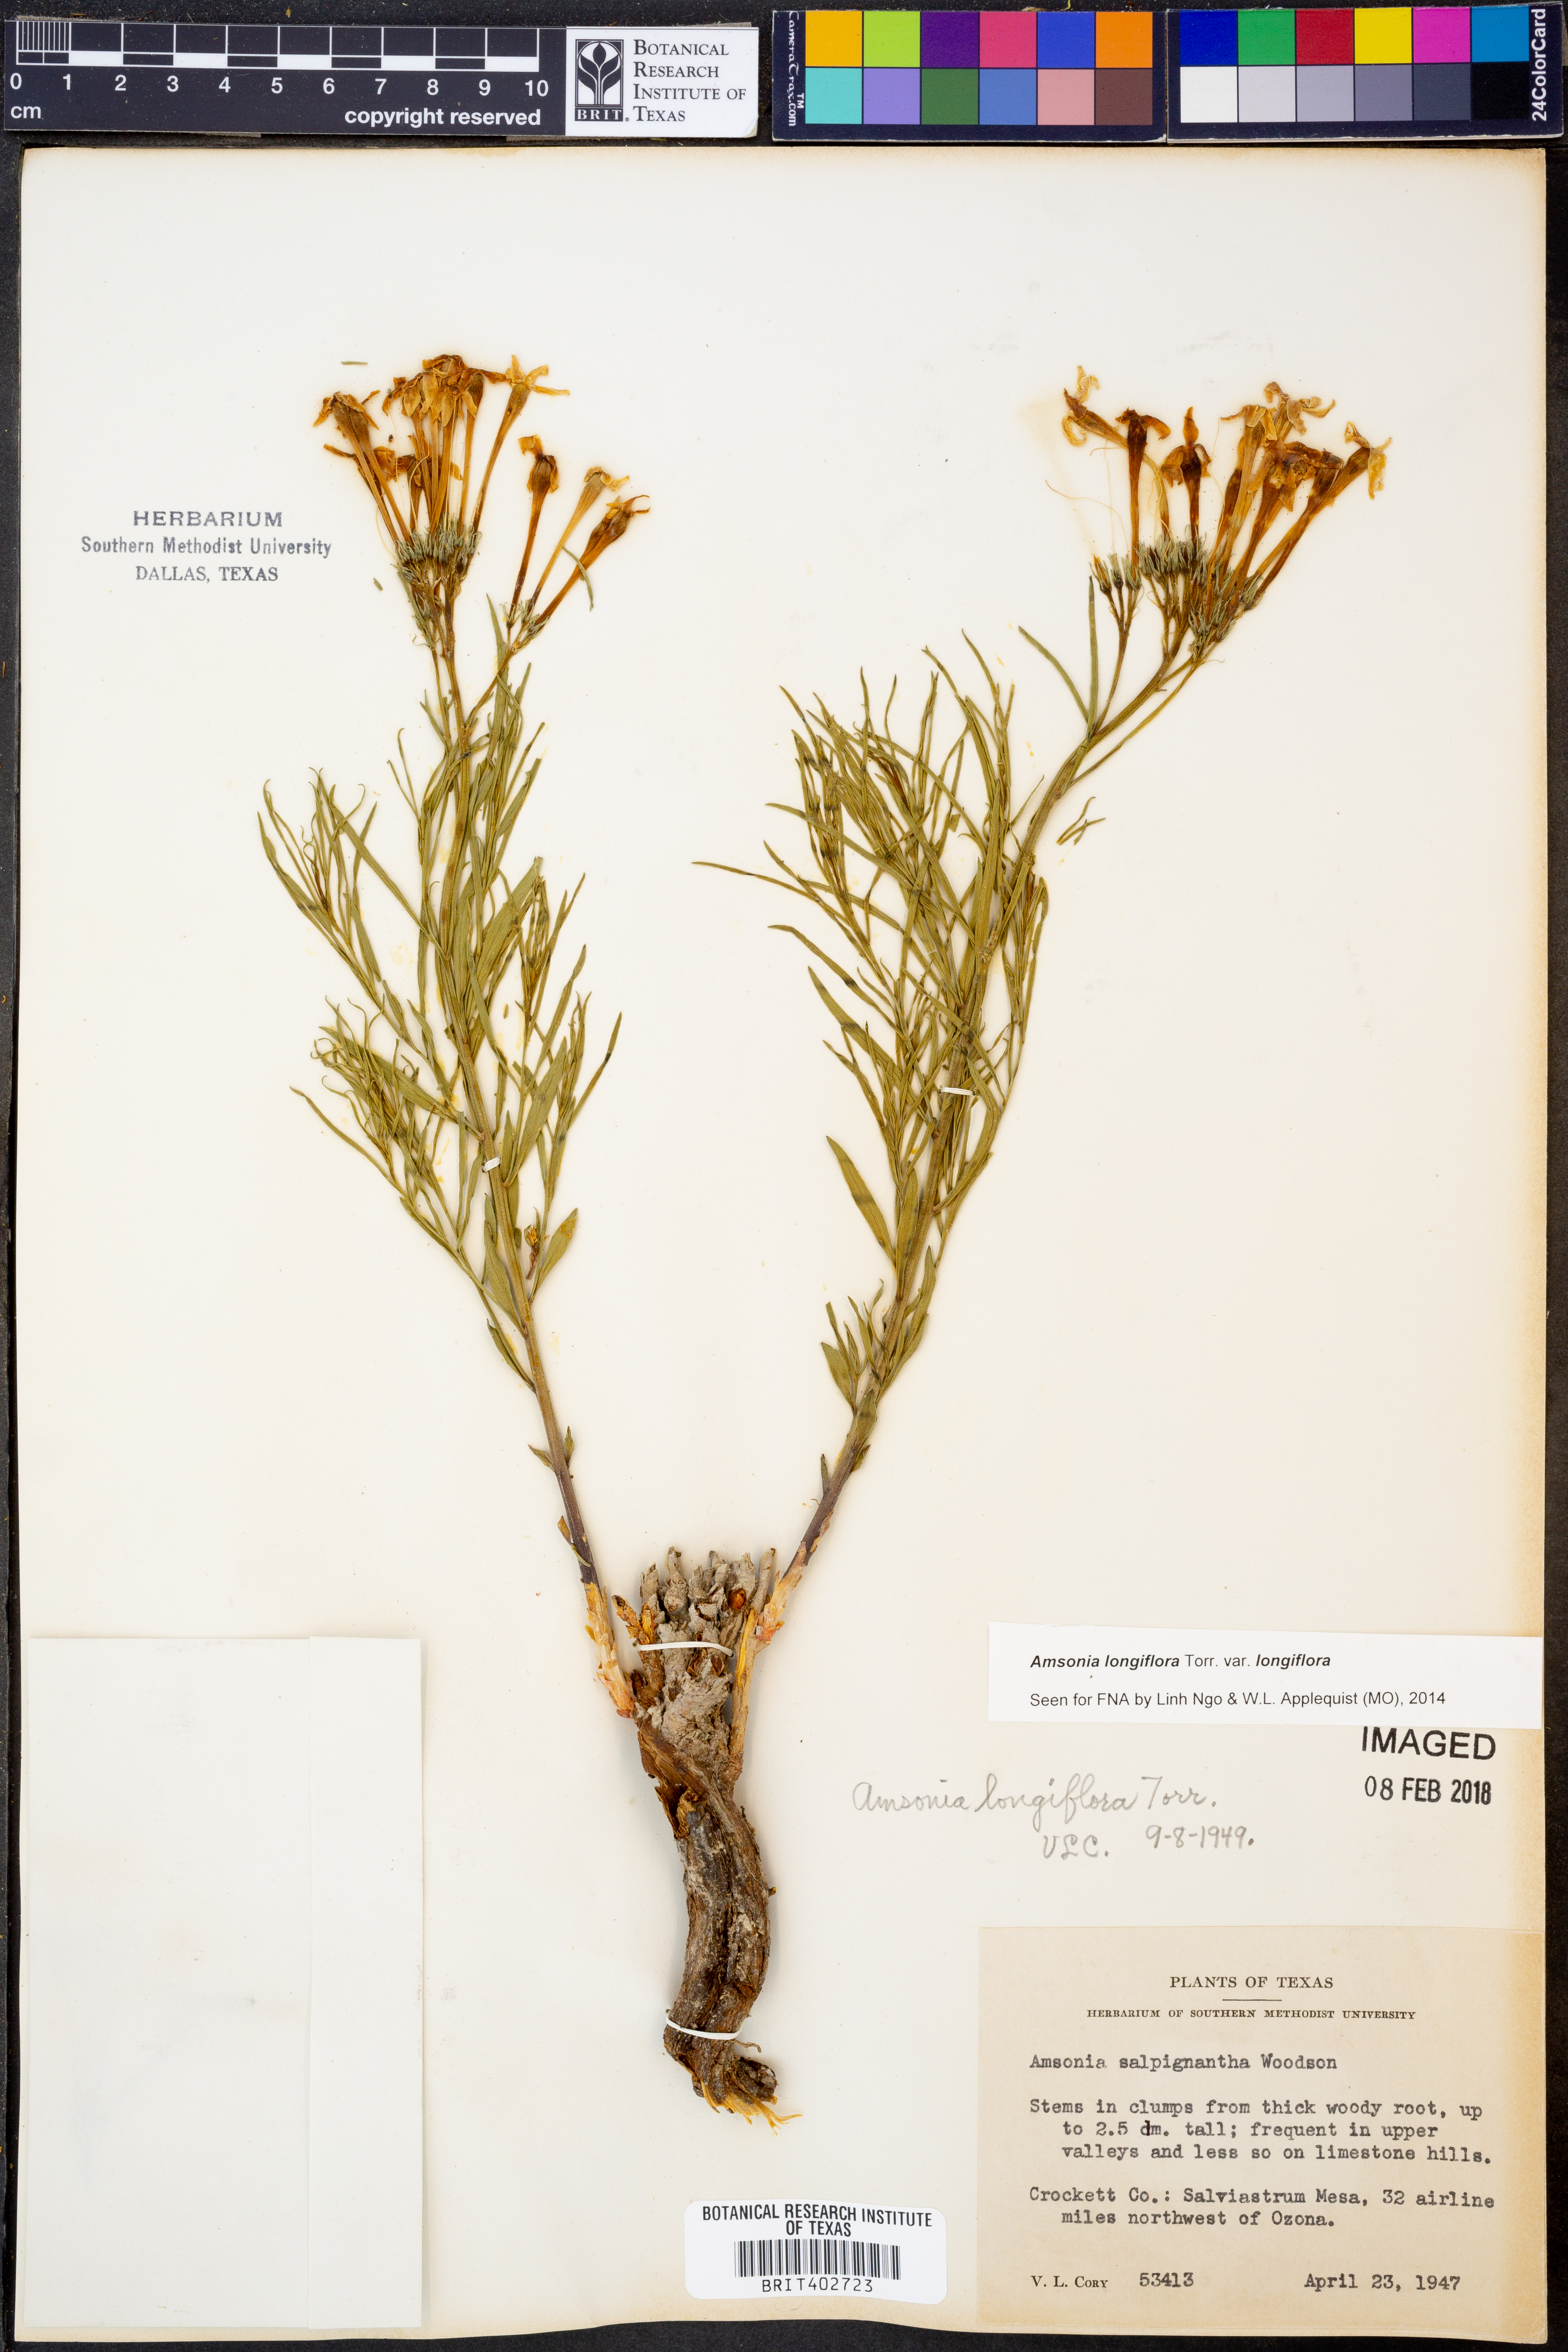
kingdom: Plantae
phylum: Tracheophyta
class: Magnoliopsida
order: Gentianales
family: Apocynaceae
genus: Amsonia
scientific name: Amsonia longiflora
